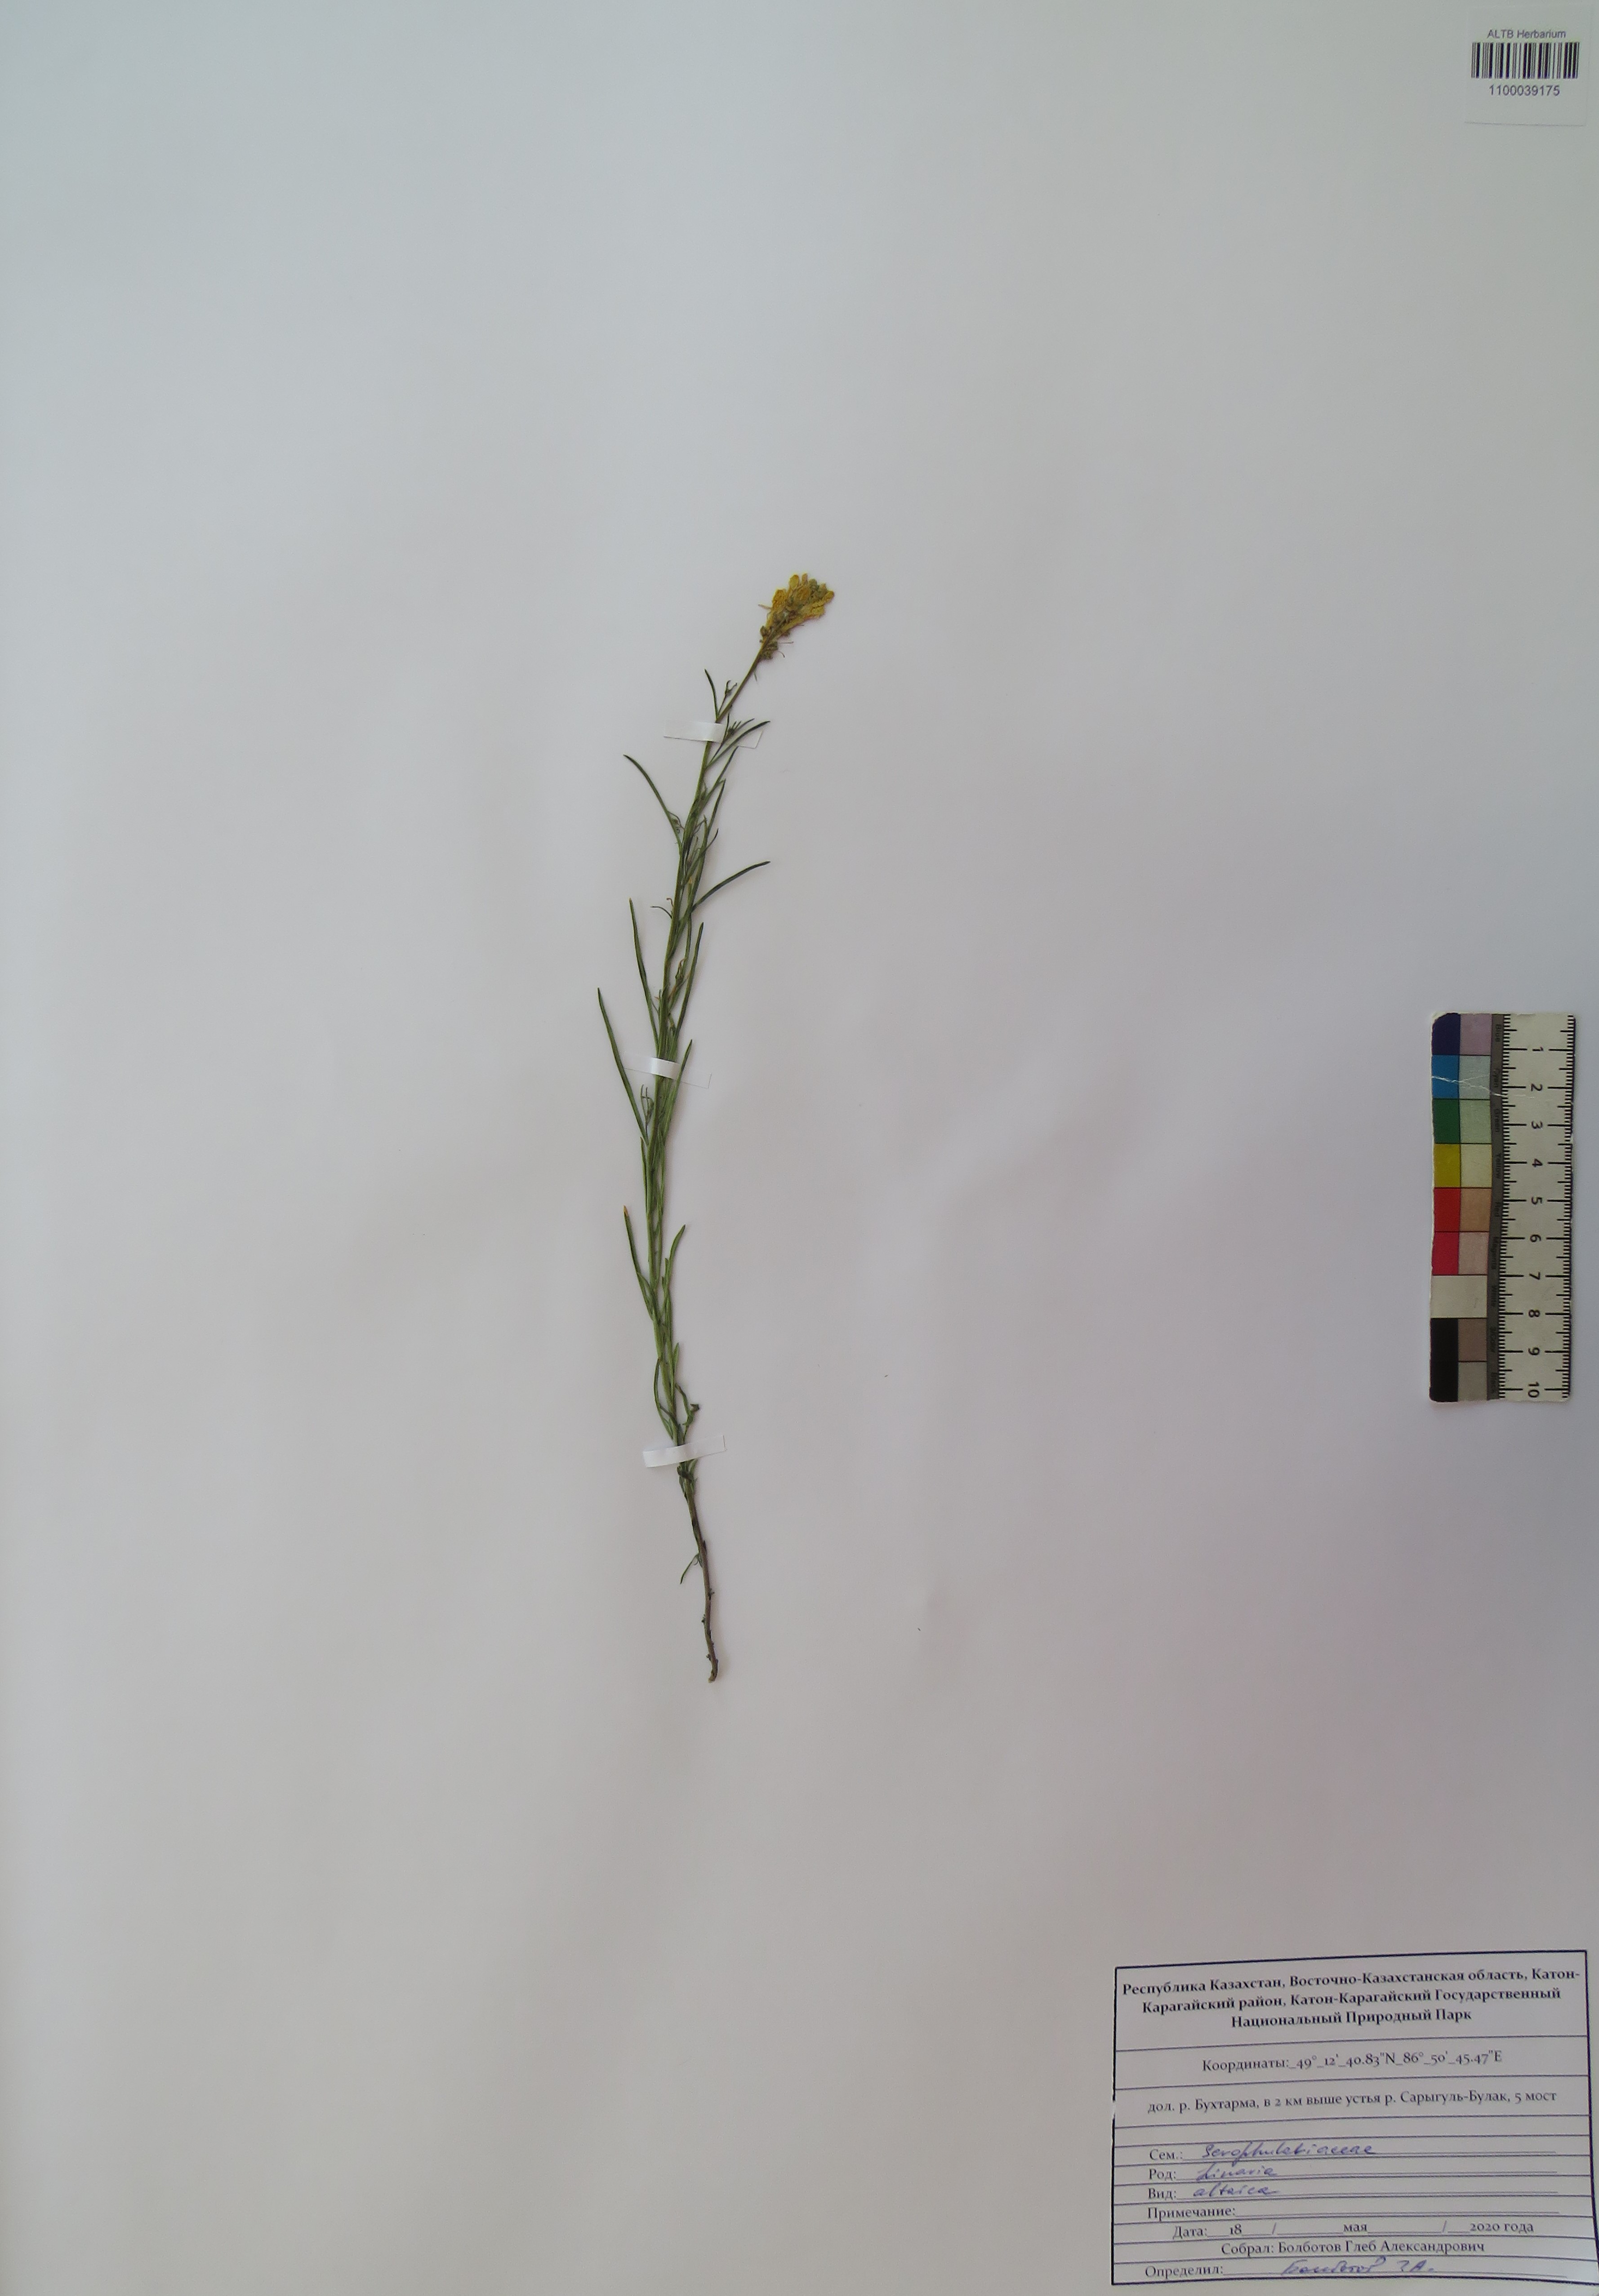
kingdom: Plantae
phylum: Tracheophyta
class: Magnoliopsida
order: Lamiales
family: Plantaginaceae
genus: Linaria
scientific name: Linaria altaica
